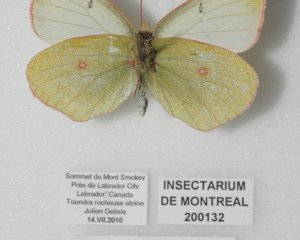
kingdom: Animalia
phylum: Arthropoda
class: Insecta
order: Lepidoptera
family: Pieridae
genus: Colias
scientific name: Colias pelidne
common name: Pelidne Sulphur
